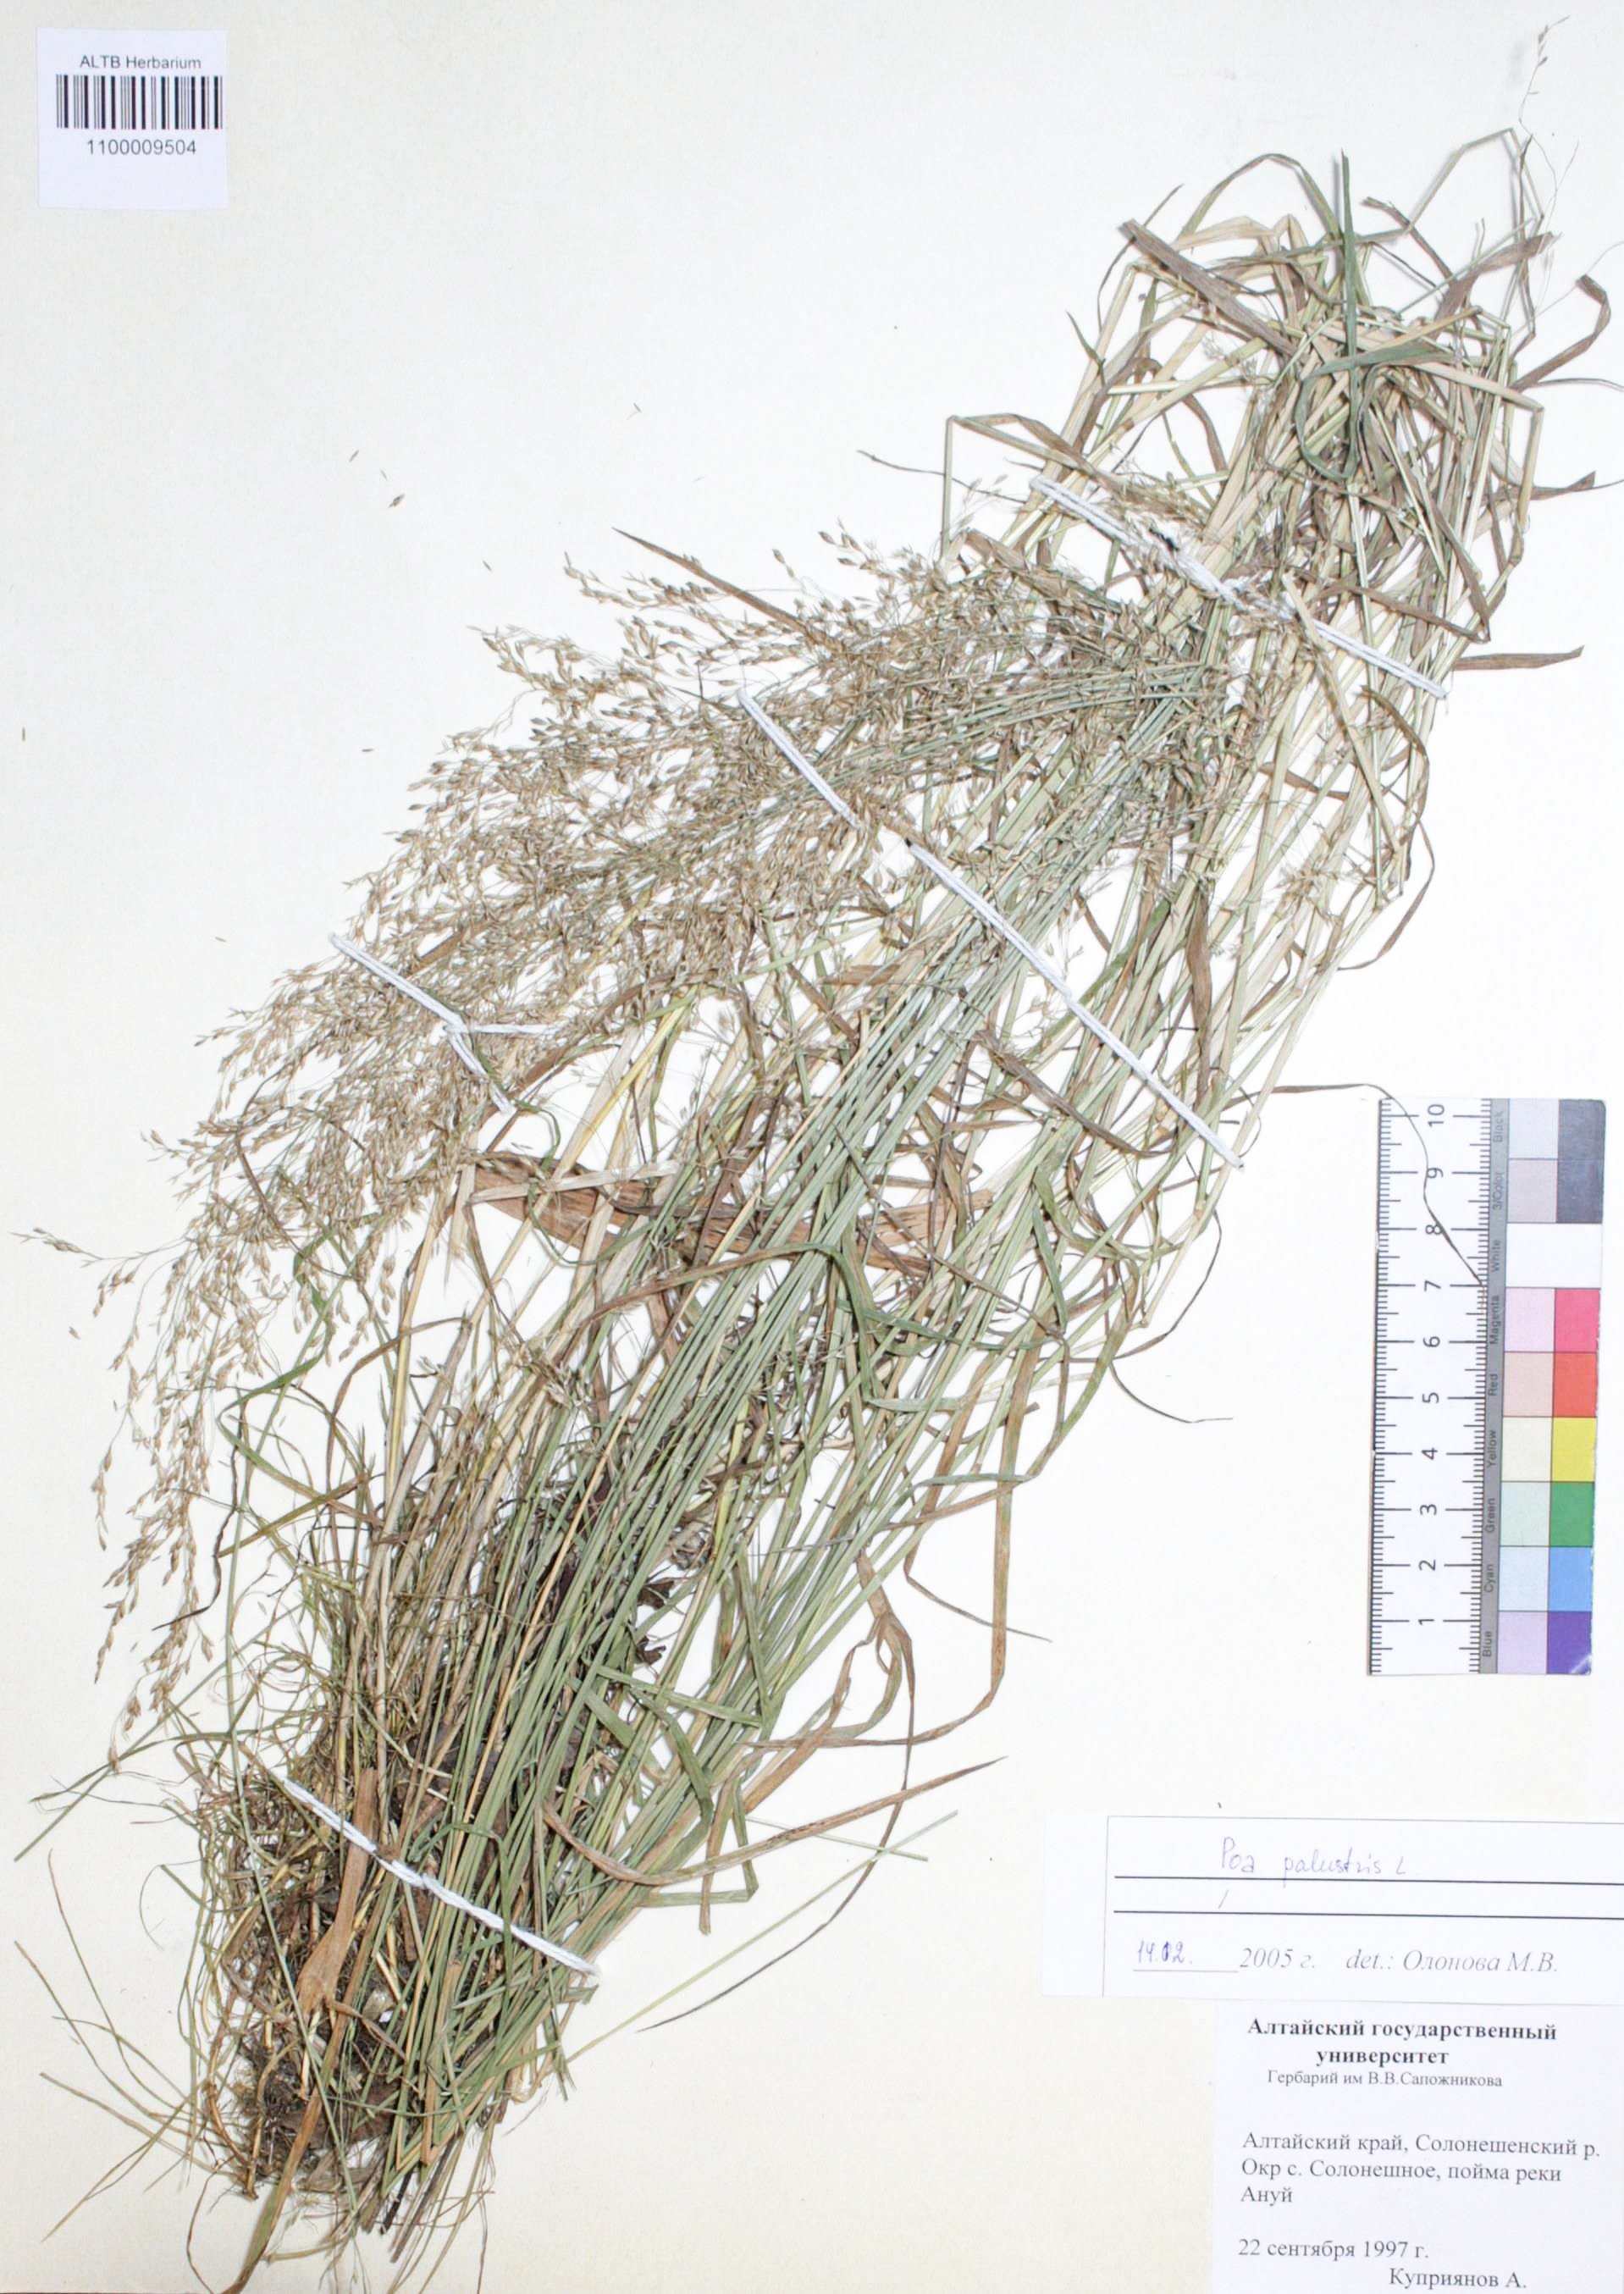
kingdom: Plantae
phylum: Tracheophyta
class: Liliopsida
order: Poales
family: Poaceae
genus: Poa
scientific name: Poa pratensis
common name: Kentucky bluegrass
